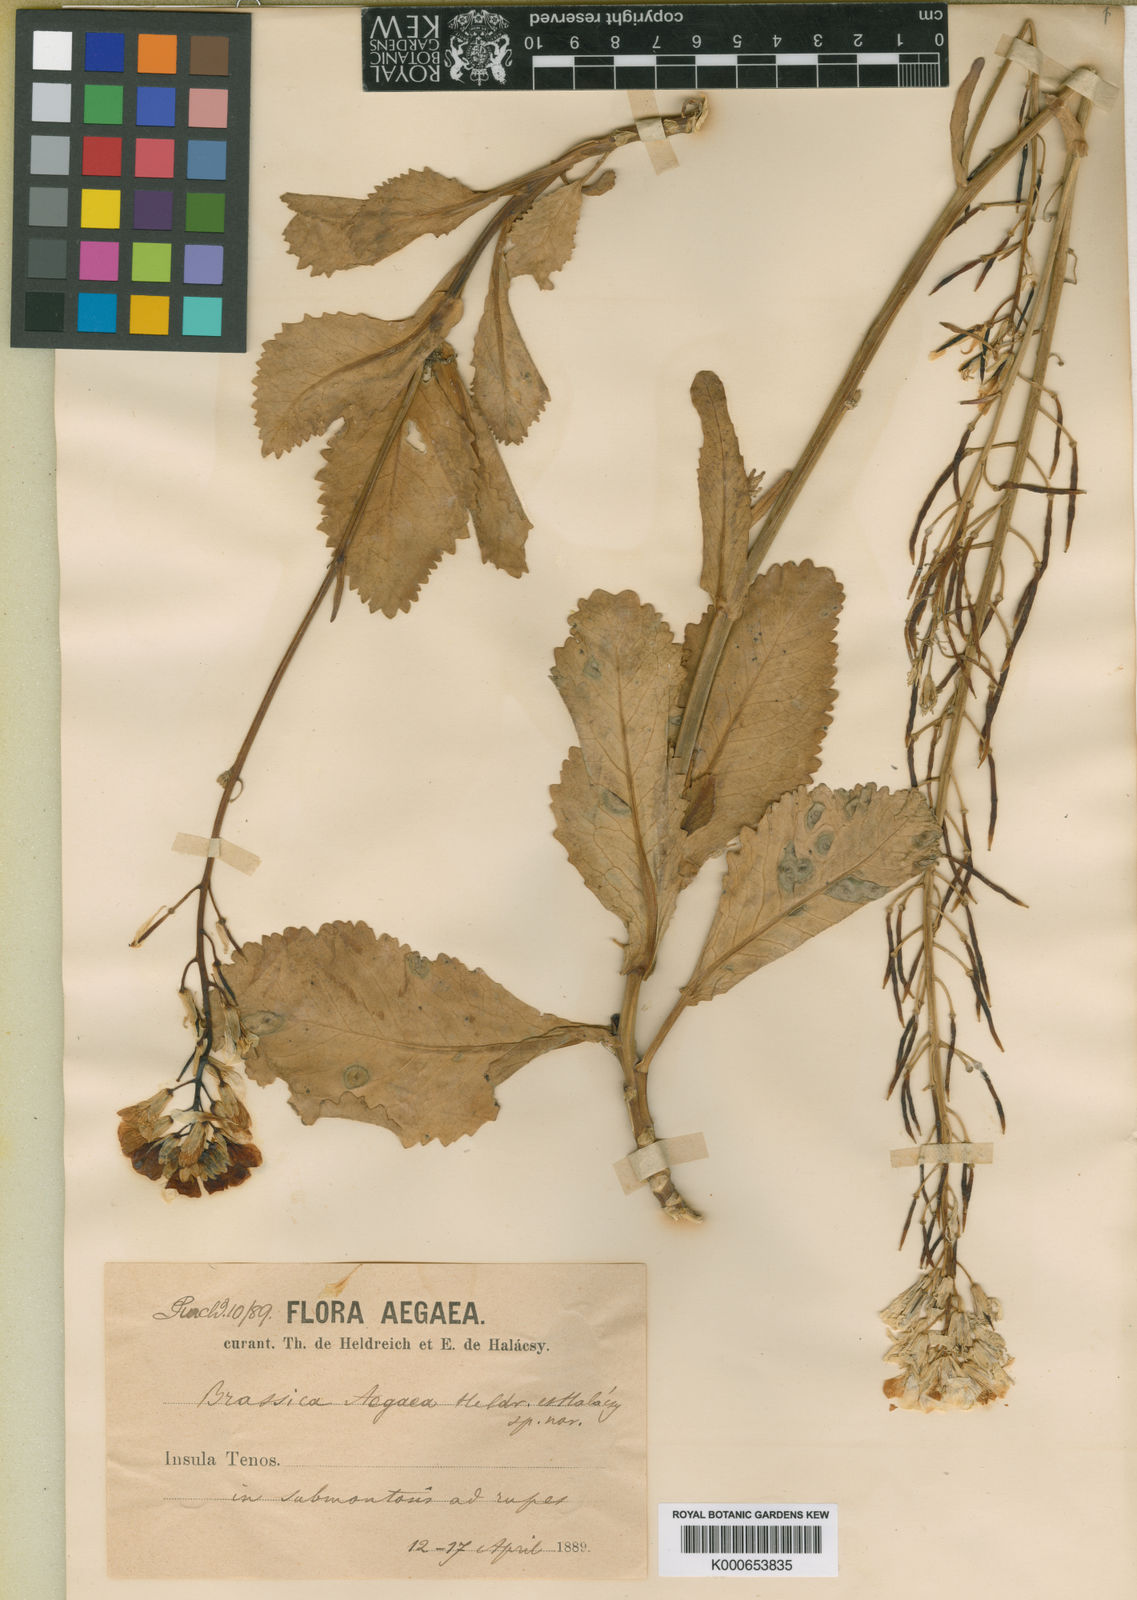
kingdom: Plantae
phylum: Tracheophyta
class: Magnoliopsida
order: Brassicales
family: Brassicaceae
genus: Brassica
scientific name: Brassica
